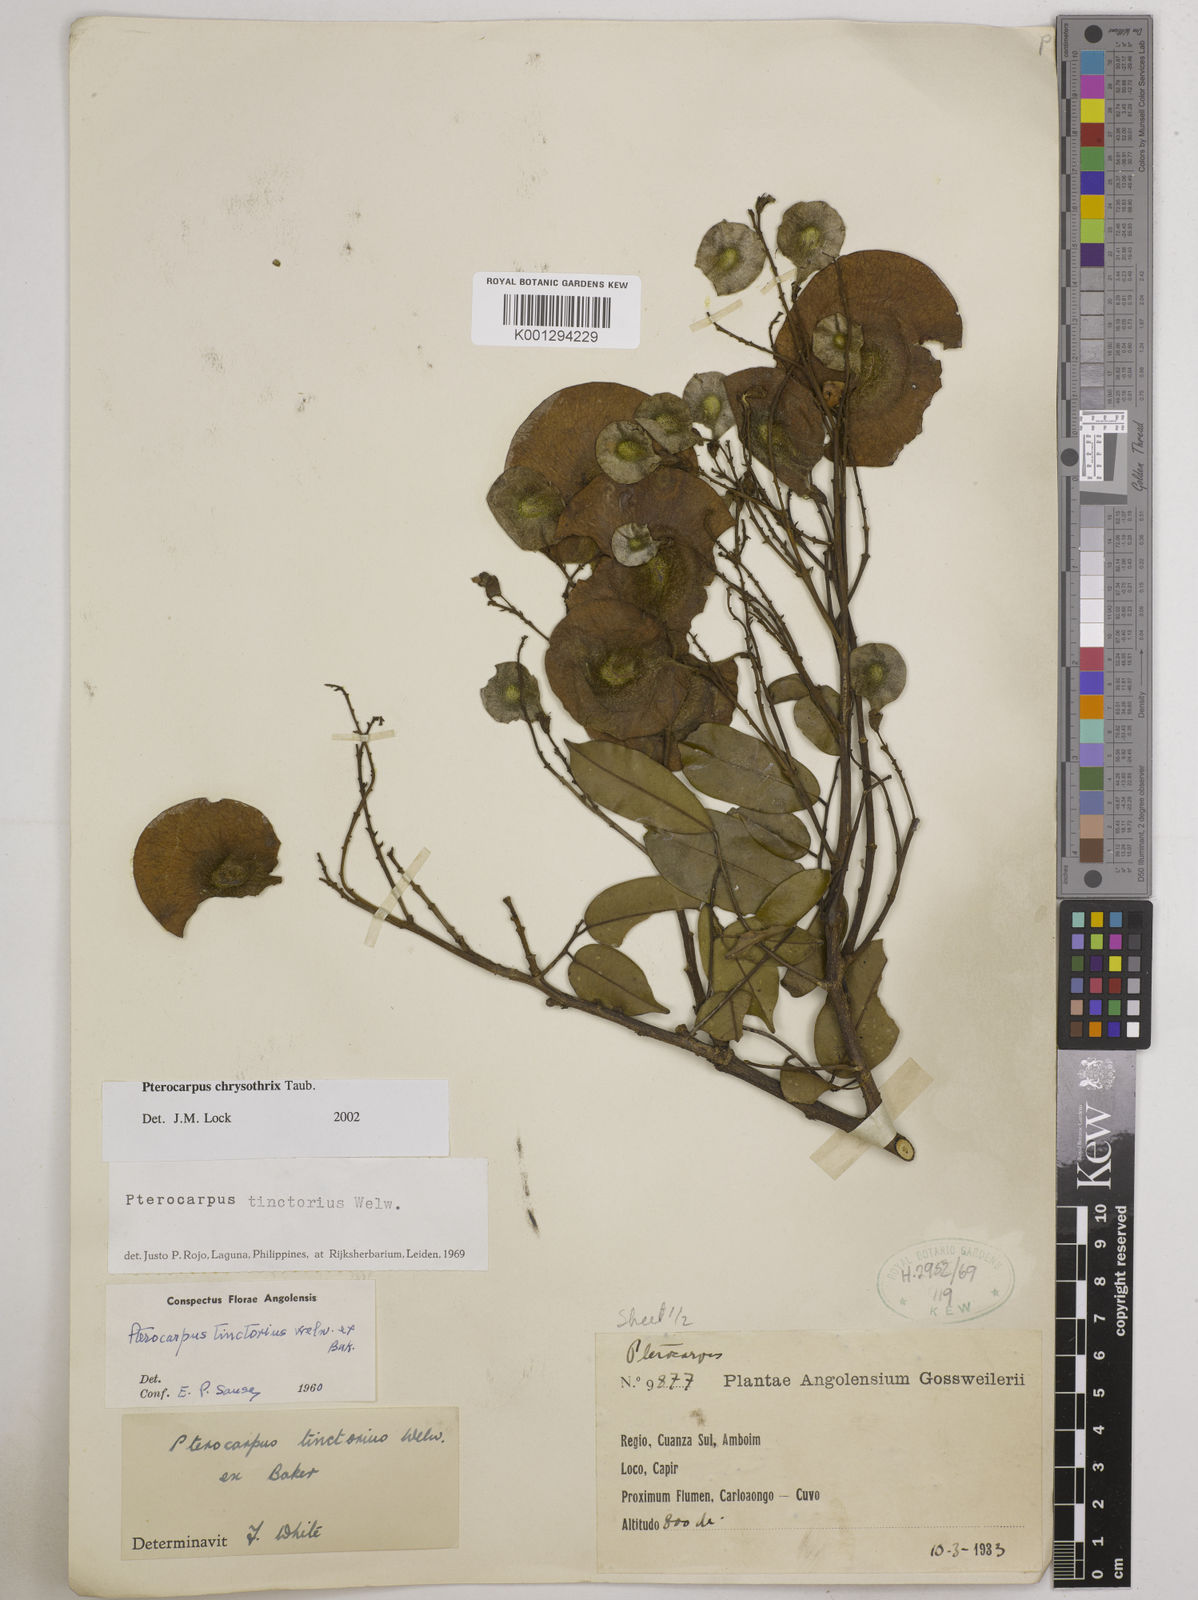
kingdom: Plantae
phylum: Tracheophyta
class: Magnoliopsida
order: Fabales
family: Fabaceae
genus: Pterocarpus
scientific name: Pterocarpus tinctorius
